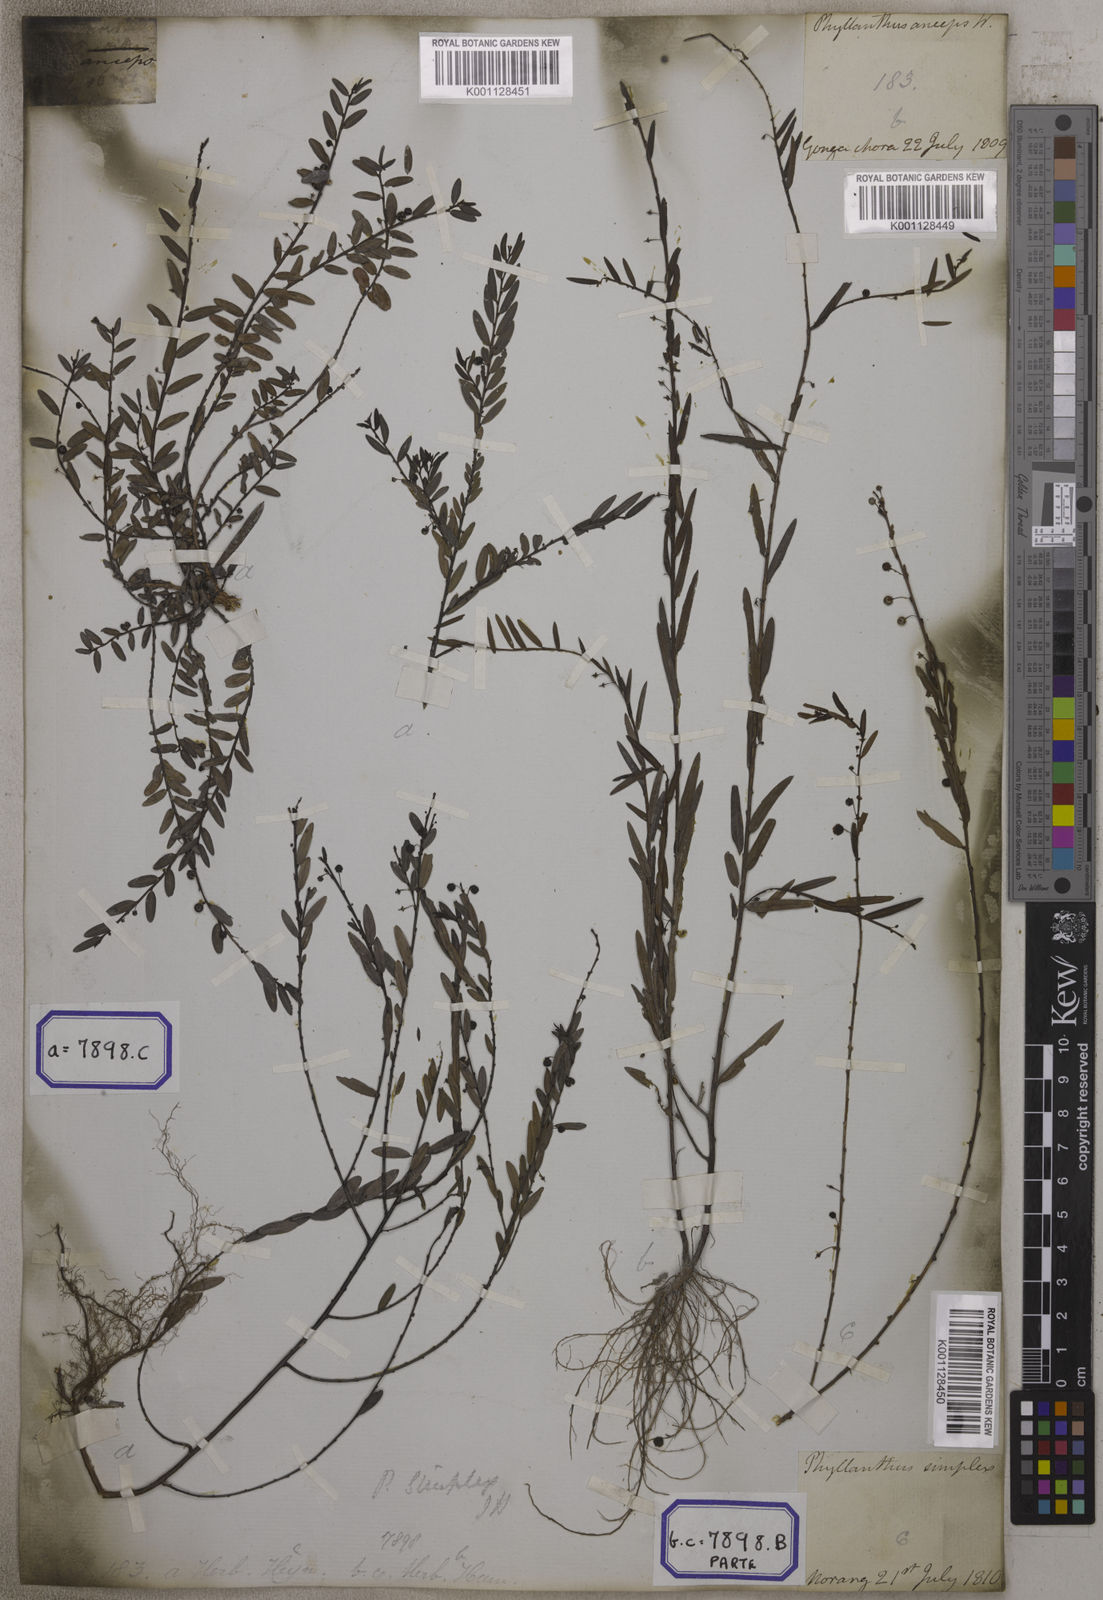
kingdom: Plantae
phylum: Tracheophyta
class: Magnoliopsida
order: Malpighiales
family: Euphorbiaceae
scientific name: Euphorbiaceae
